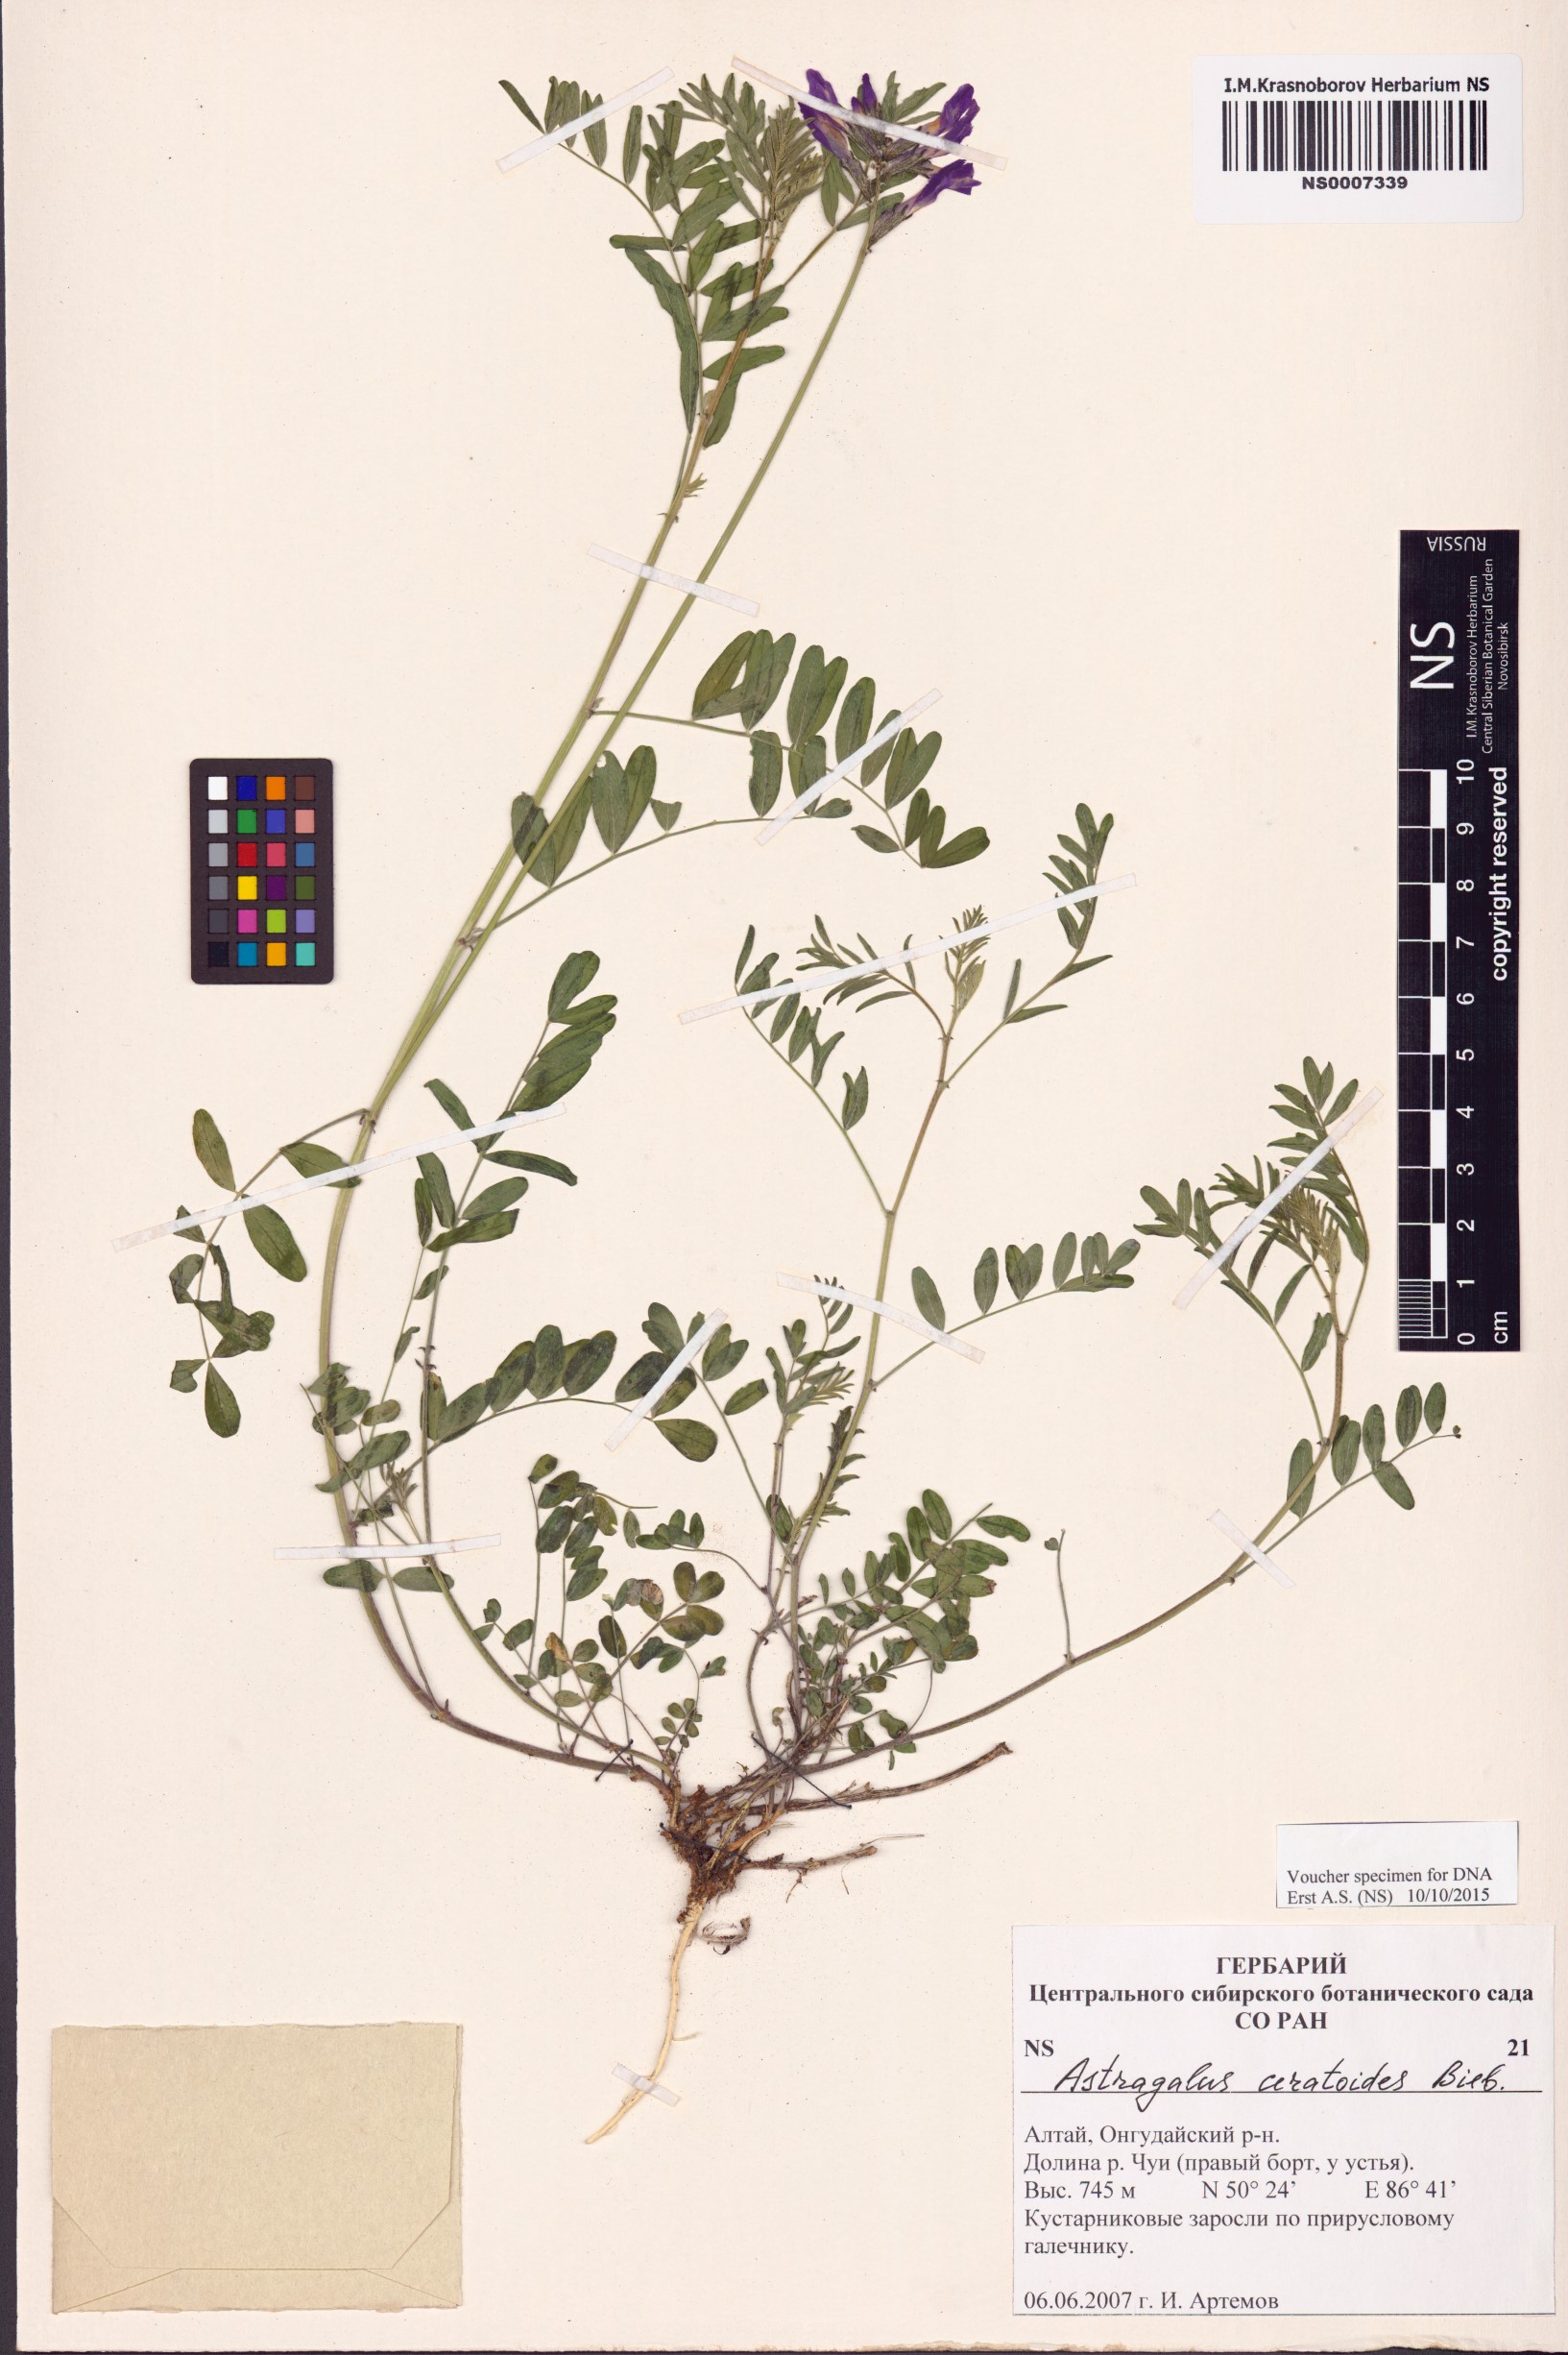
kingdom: Plantae
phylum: Tracheophyta
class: Magnoliopsida
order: Fabales
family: Fabaceae
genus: Astragalus
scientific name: Astragalus ceratoides
